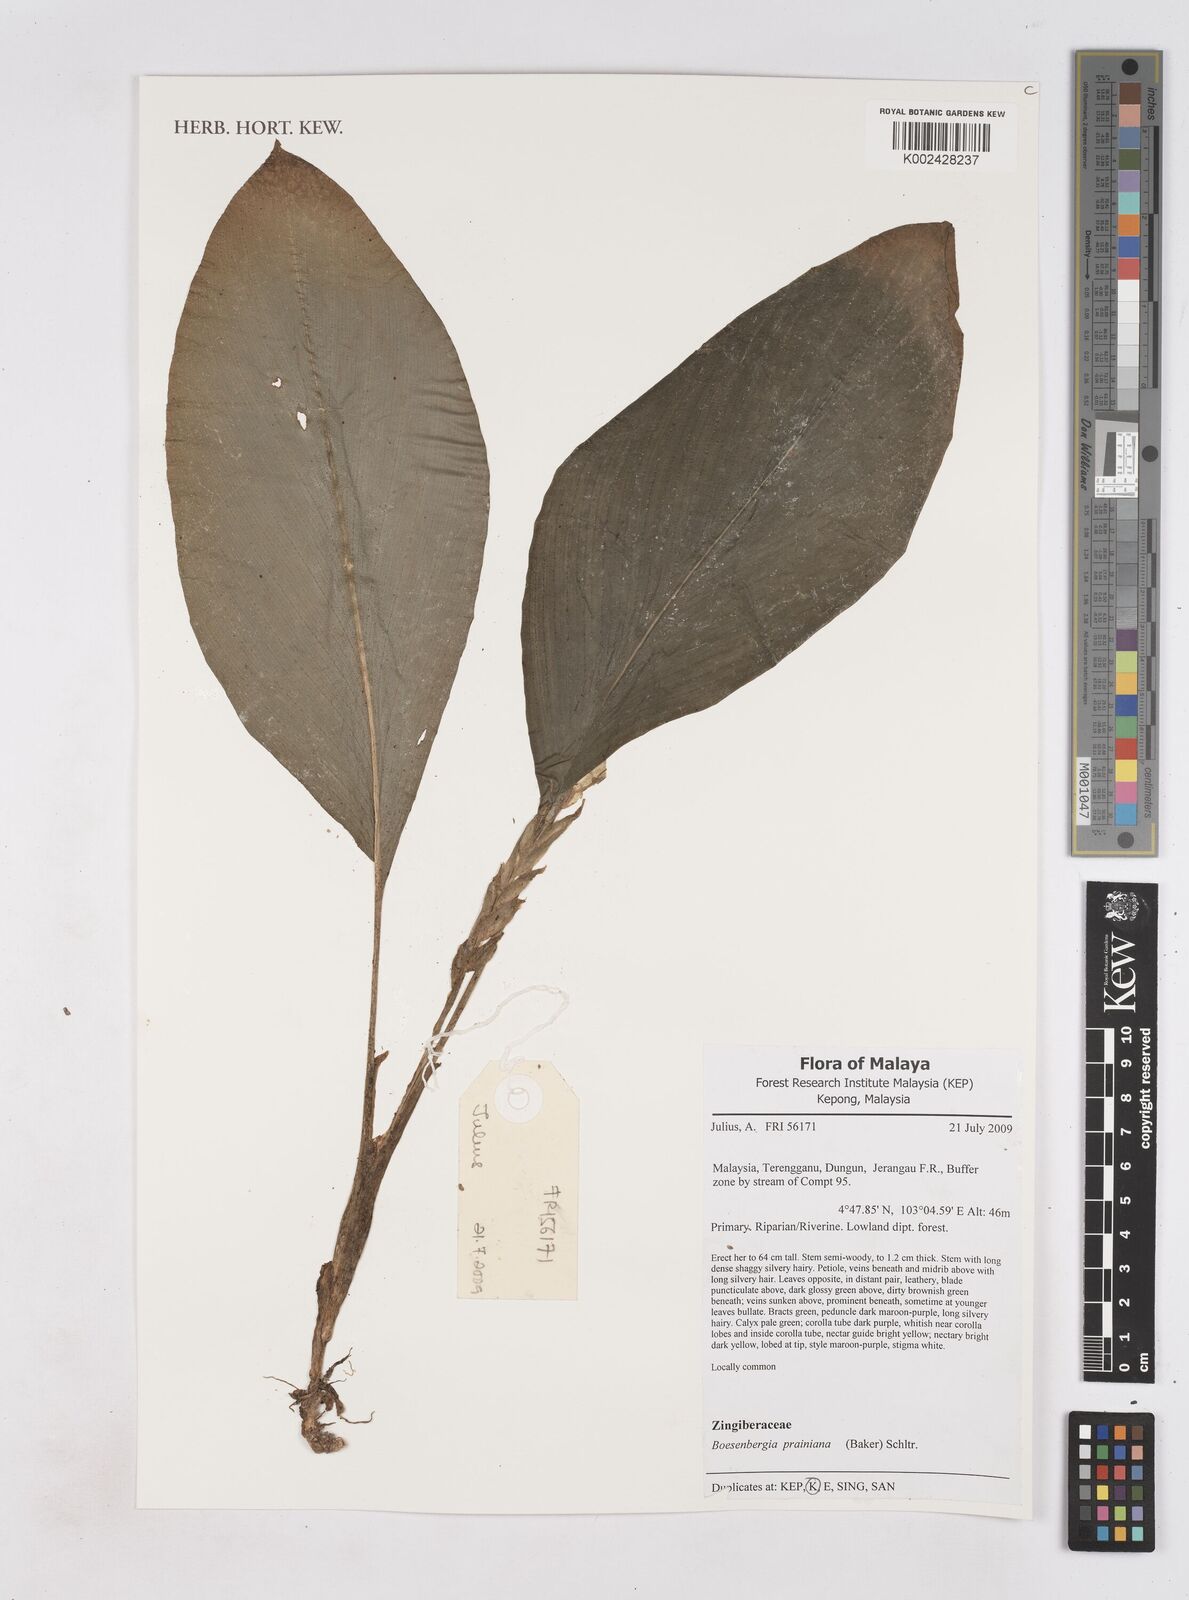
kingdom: Plantae
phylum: Tracheophyta
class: Liliopsida
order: Zingiberales
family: Zingiberaceae
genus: Boesenbergia
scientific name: Boesenbergia prainiana
